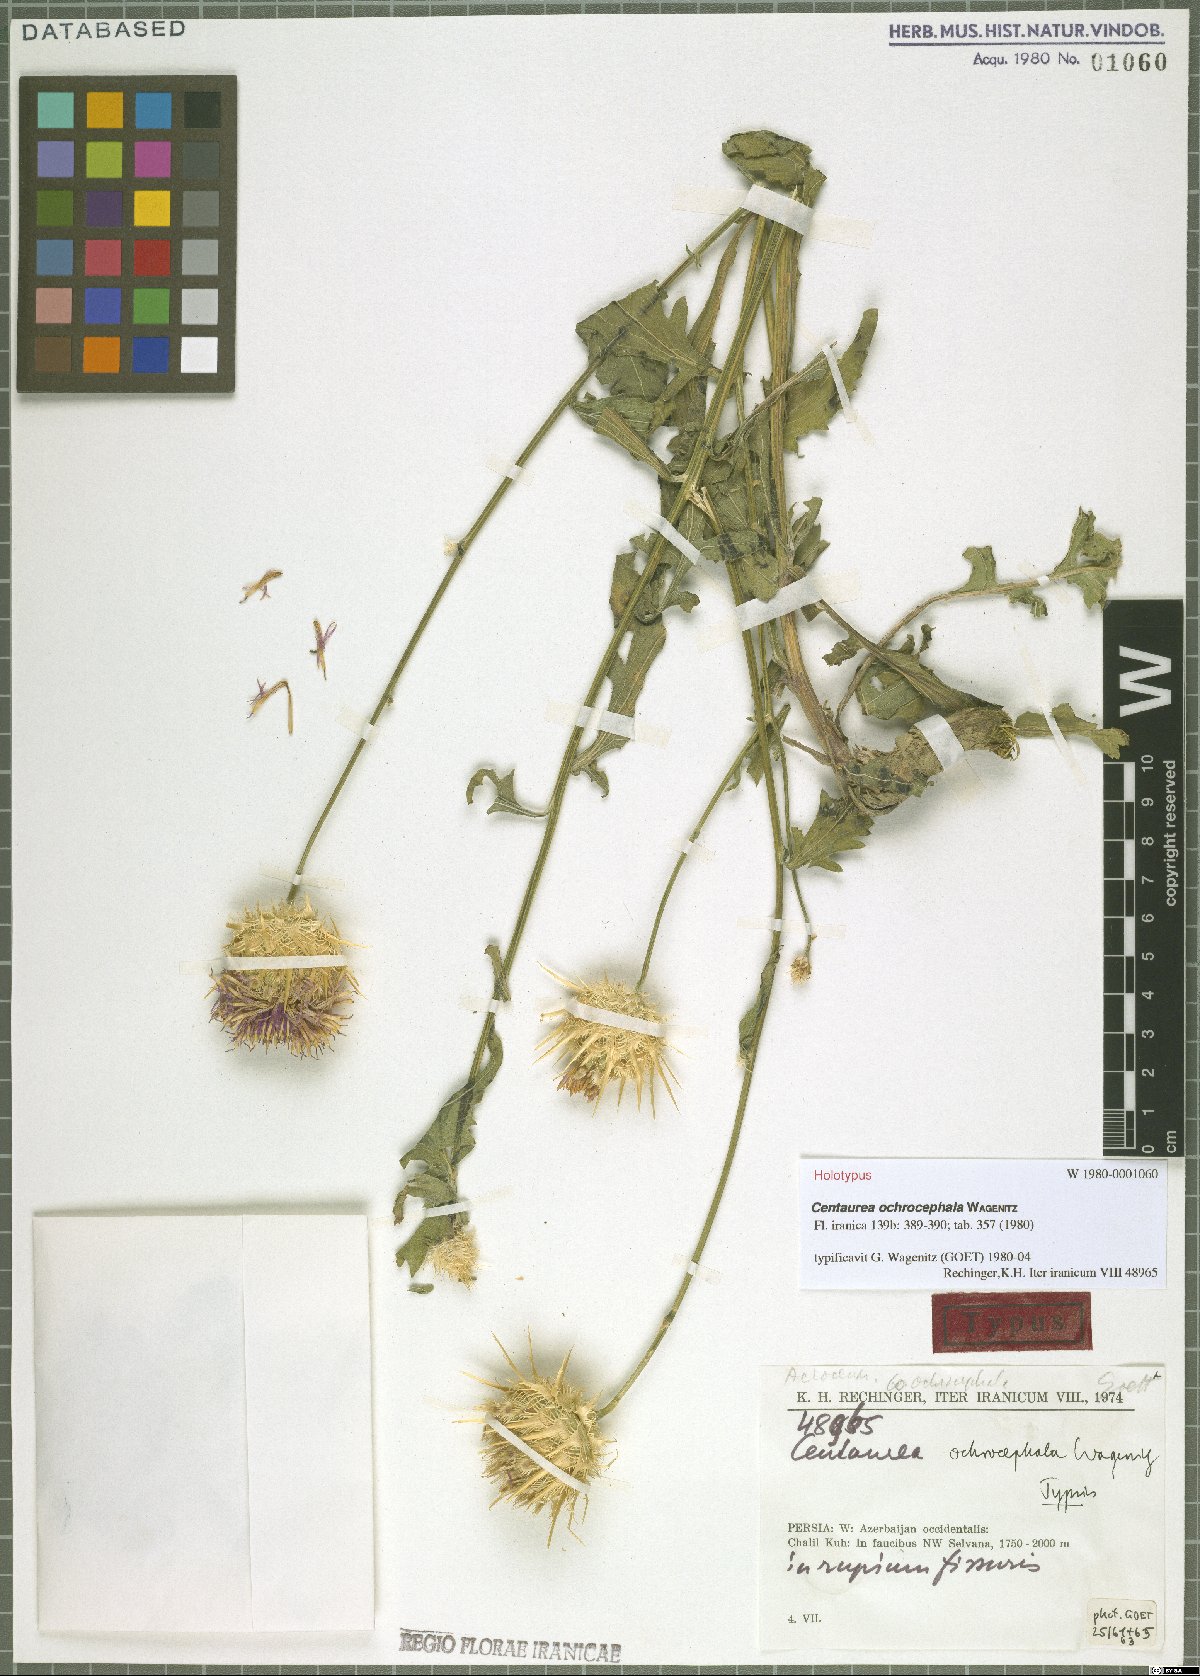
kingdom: Plantae
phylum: Tracheophyta
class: Magnoliopsida
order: Asterales
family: Asteraceae
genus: Centaurea
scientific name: Centaurea ochrocephala
